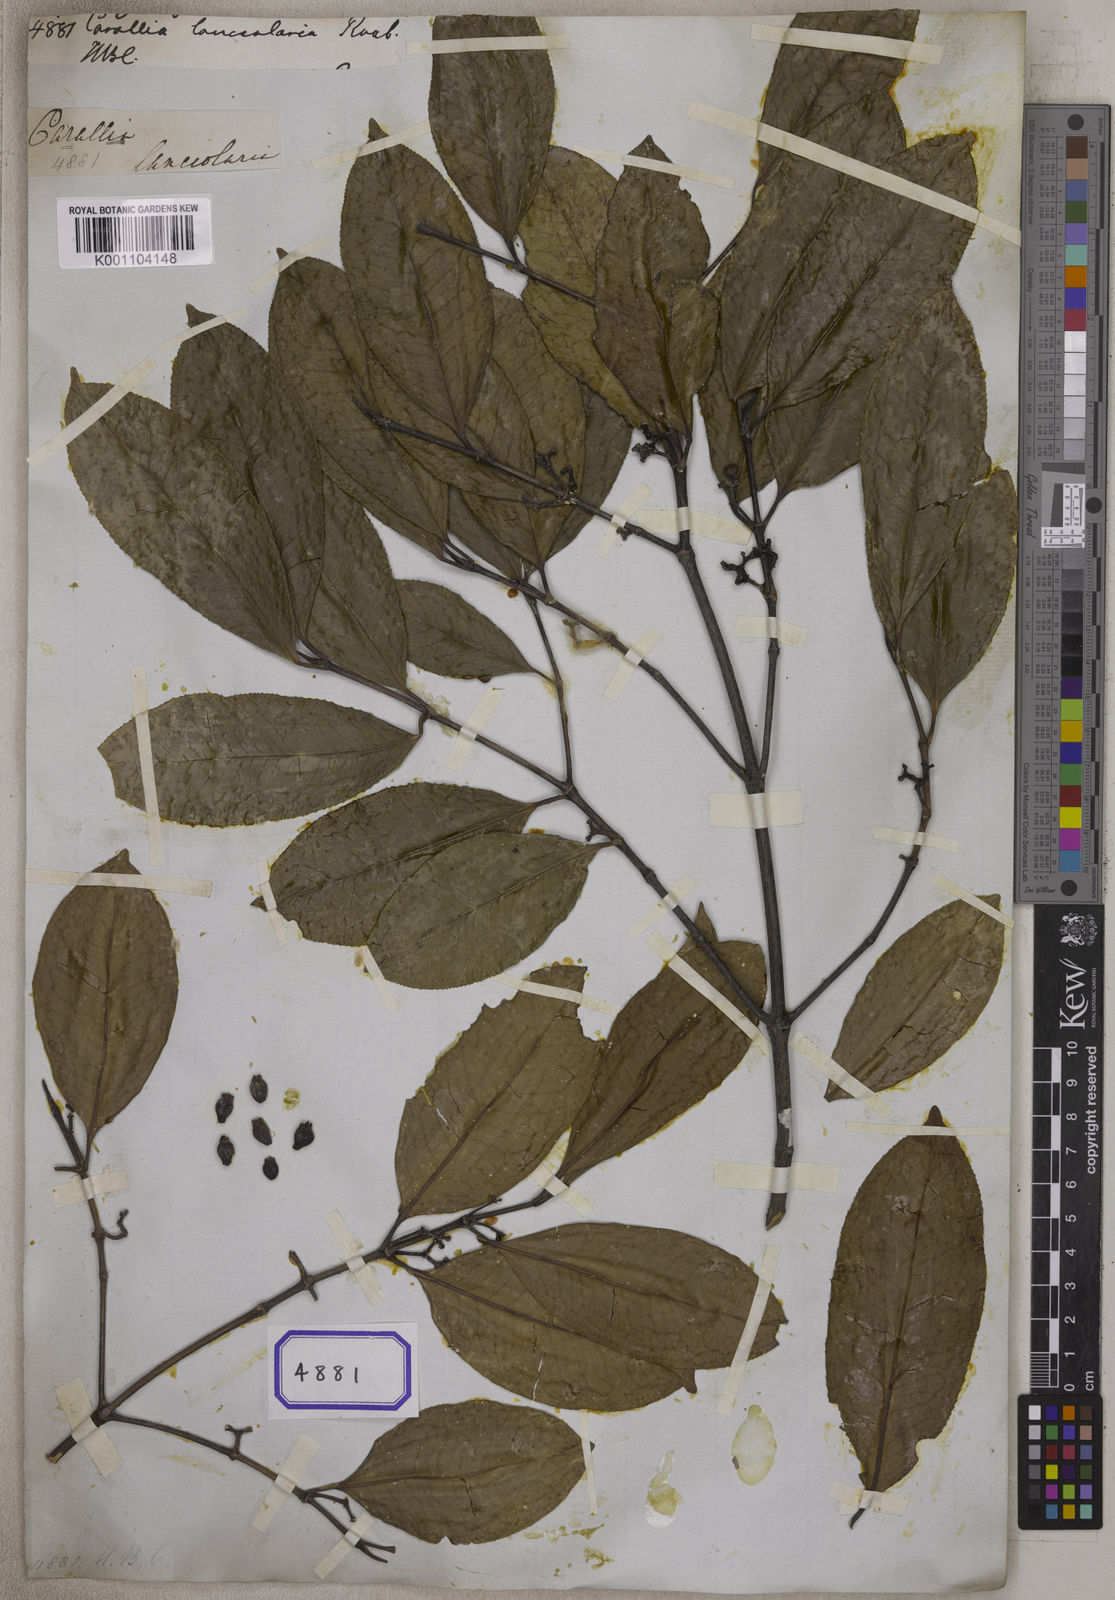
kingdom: Plantae
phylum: Tracheophyta
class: Magnoliopsida
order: Malpighiales
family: Rhizophoraceae
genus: Carallia
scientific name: Carallia brachiata
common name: Carallawood
